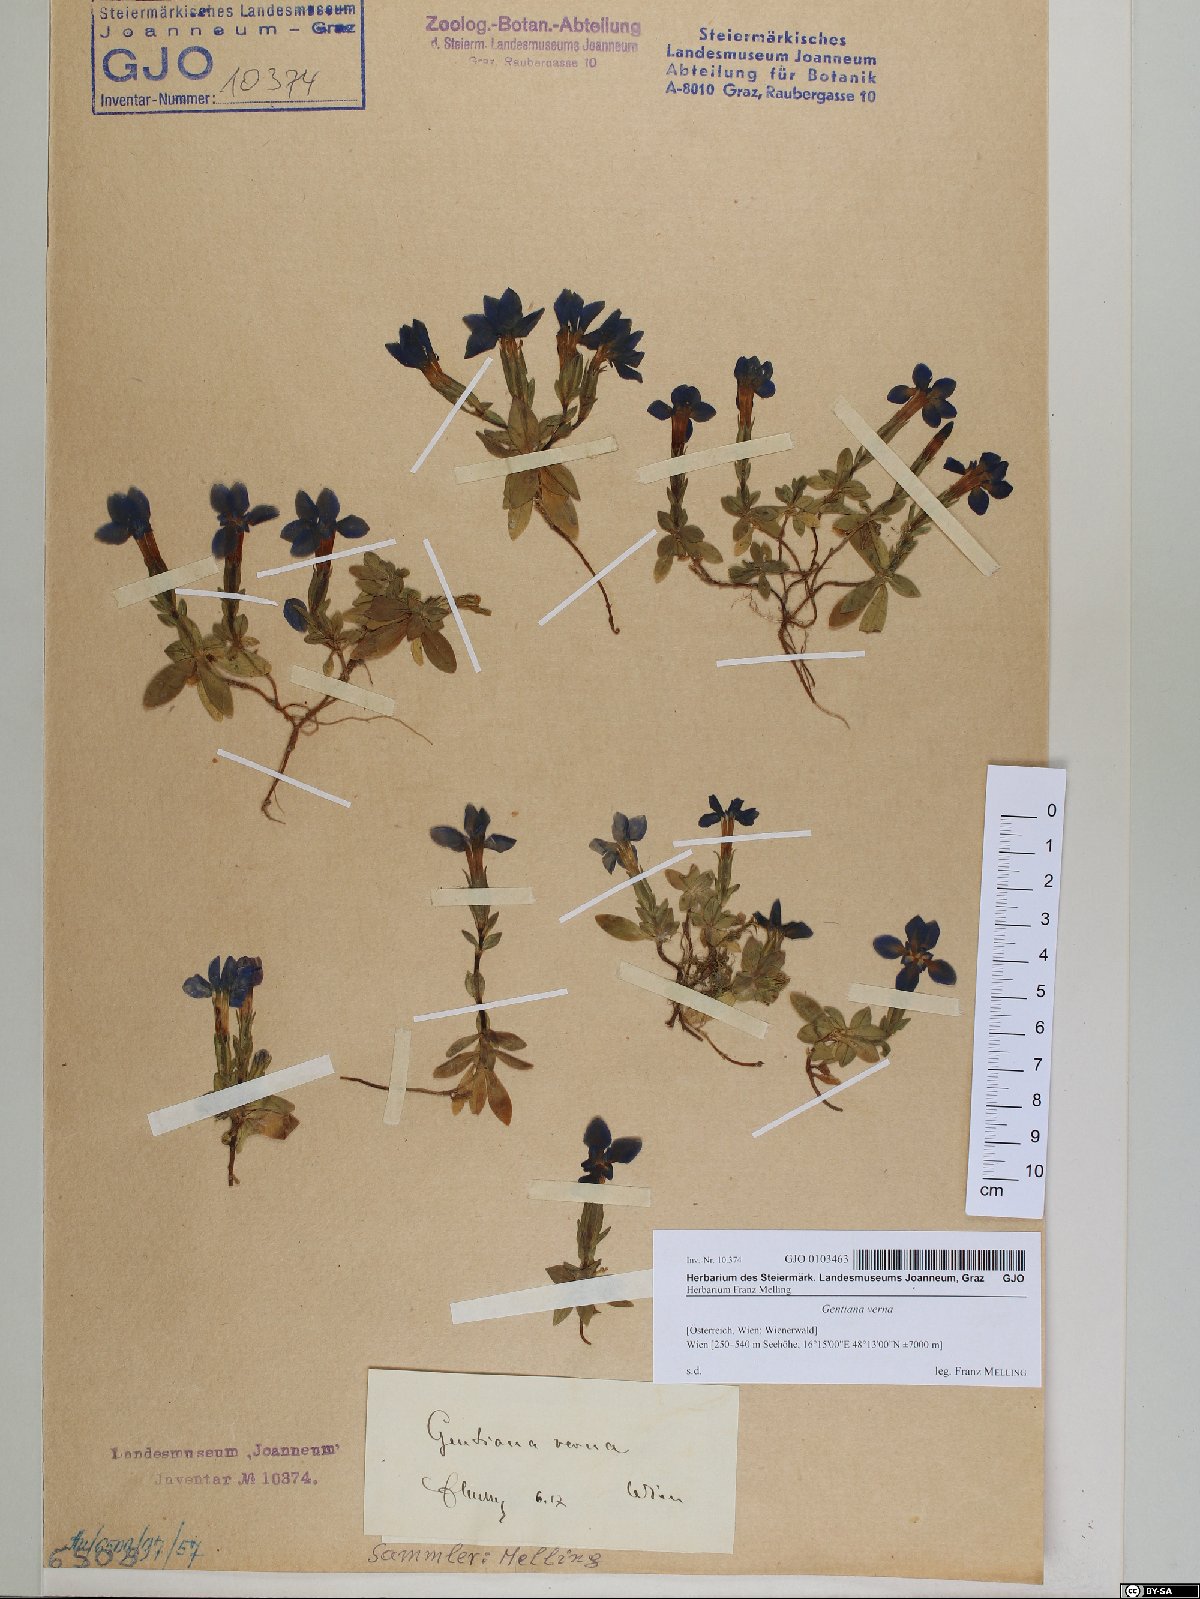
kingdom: Plantae
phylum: Tracheophyta
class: Magnoliopsida
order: Gentianales
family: Gentianaceae
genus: Gentiana
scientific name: Gentiana verna
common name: Spring gentian
